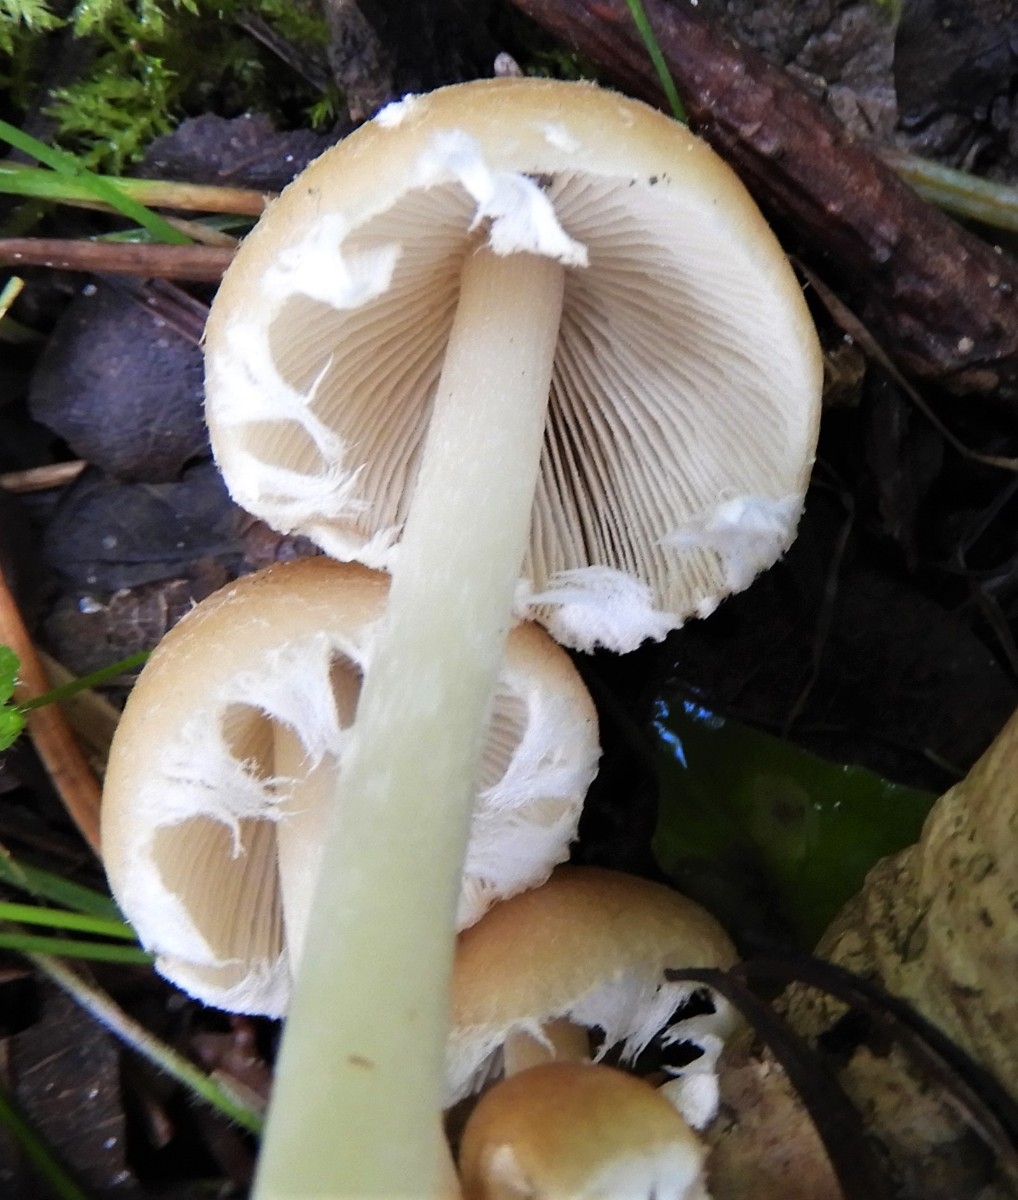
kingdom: Fungi
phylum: Basidiomycota
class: Agaricomycetes
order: Agaricales
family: Psathyrellaceae
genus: Candolleomyces
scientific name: Candolleomyces candolleanus
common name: Candolles mørkhat
